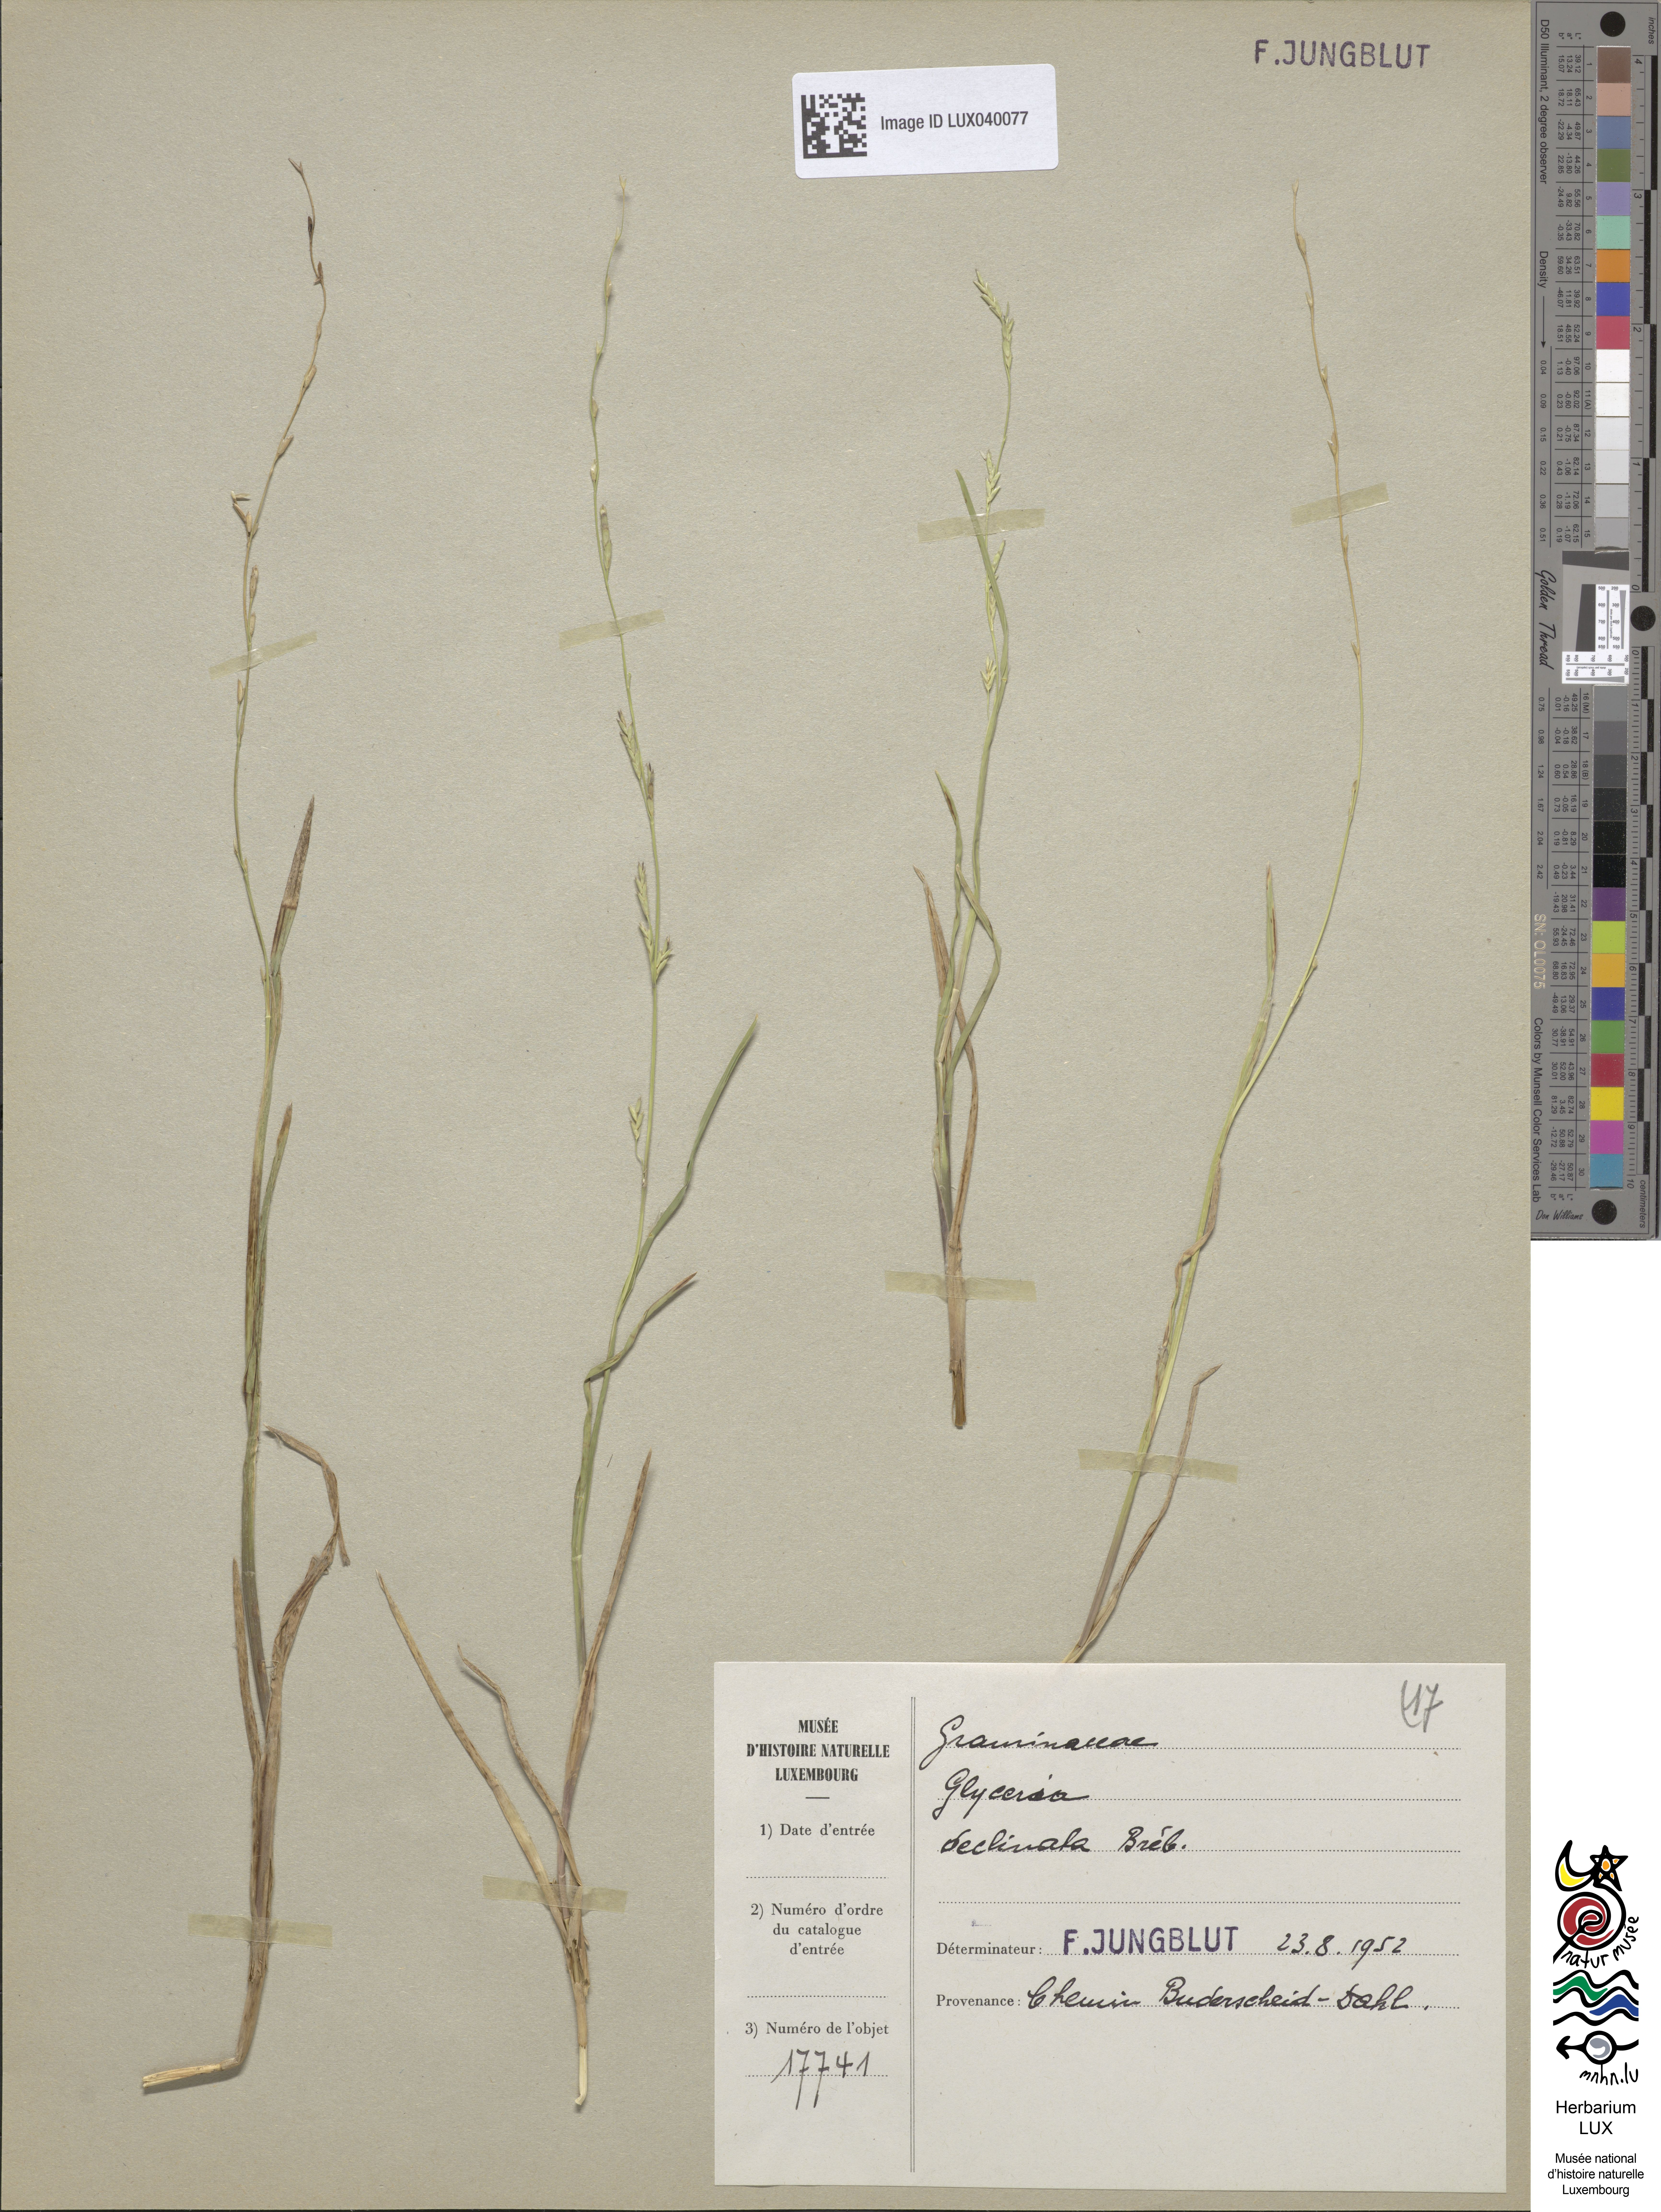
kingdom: Plantae
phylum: Tracheophyta
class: Liliopsida
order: Poales
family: Poaceae
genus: Glyceria
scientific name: Glyceria declinata
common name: Small sweet-grass
